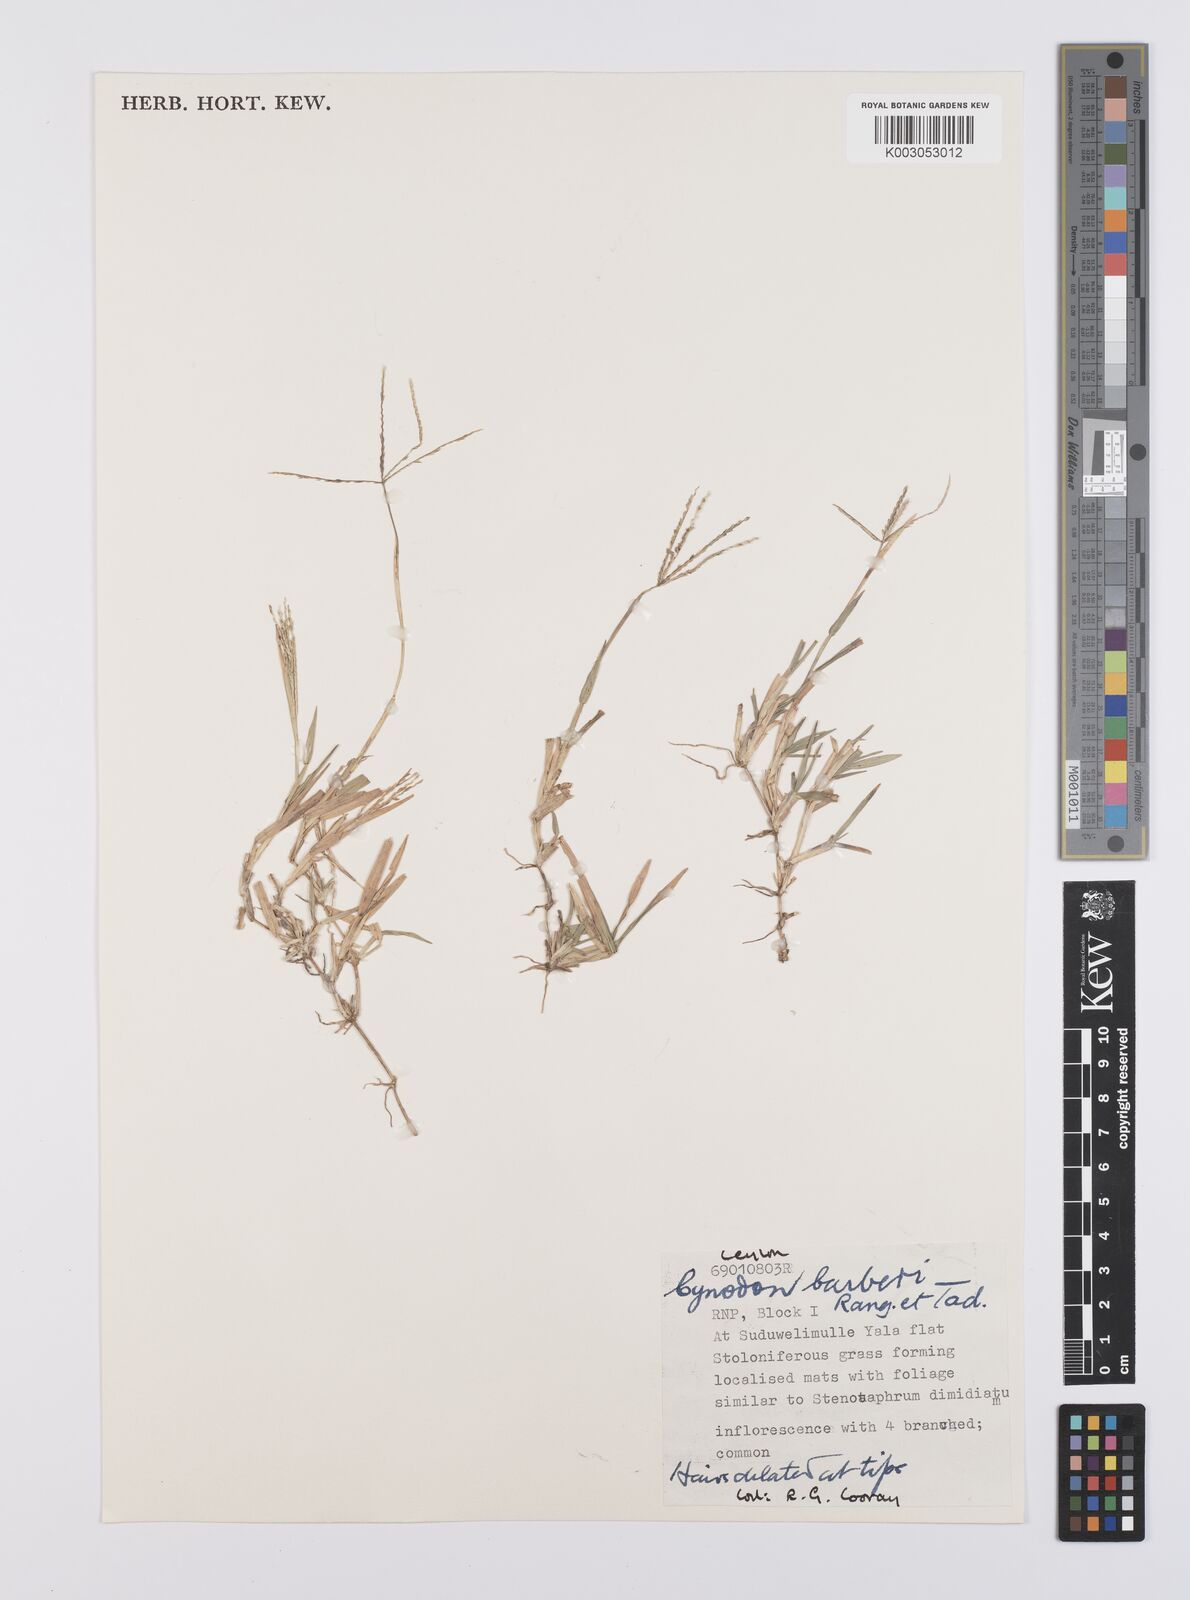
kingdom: Plantae
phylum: Tracheophyta
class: Liliopsida
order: Poales
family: Poaceae
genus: Cynodon
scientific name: Cynodon barberi
